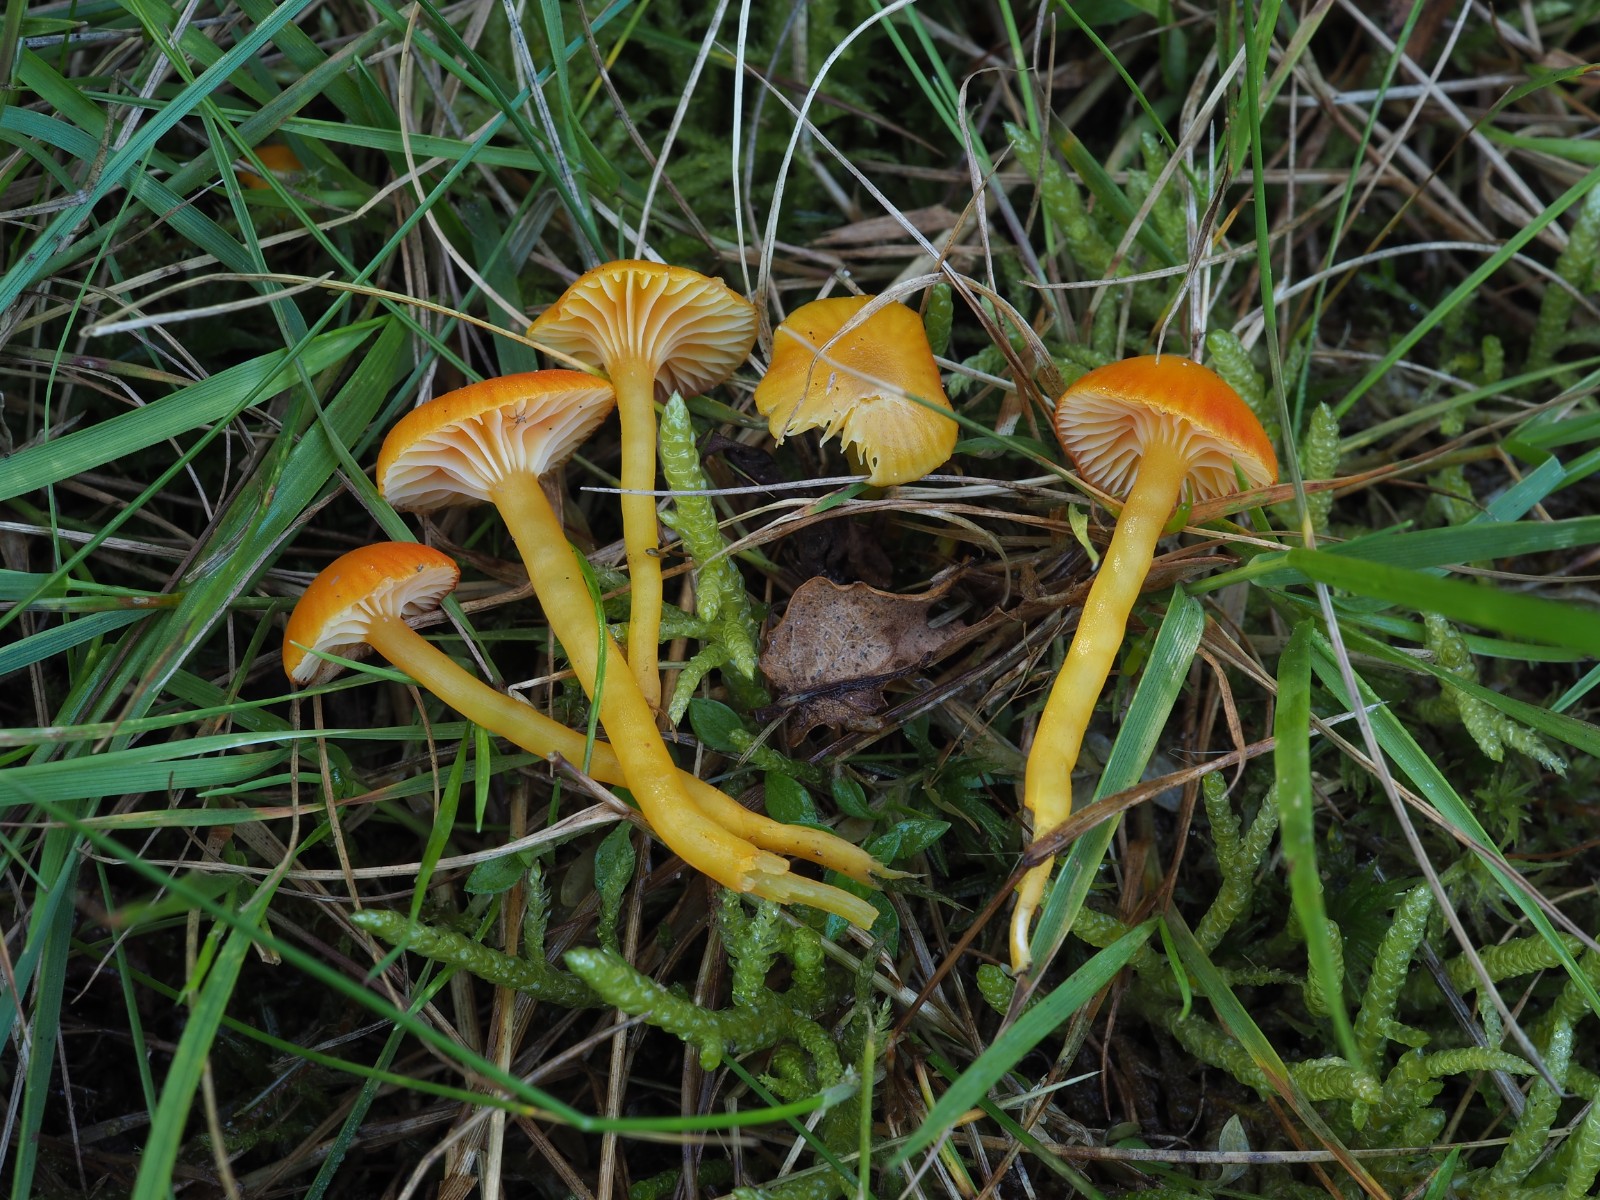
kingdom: Fungi
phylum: Basidiomycota
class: Agaricomycetes
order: Agaricales
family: Hygrophoraceae
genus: Hygrocybe
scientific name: Hygrocybe insipida
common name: liden vokshat
